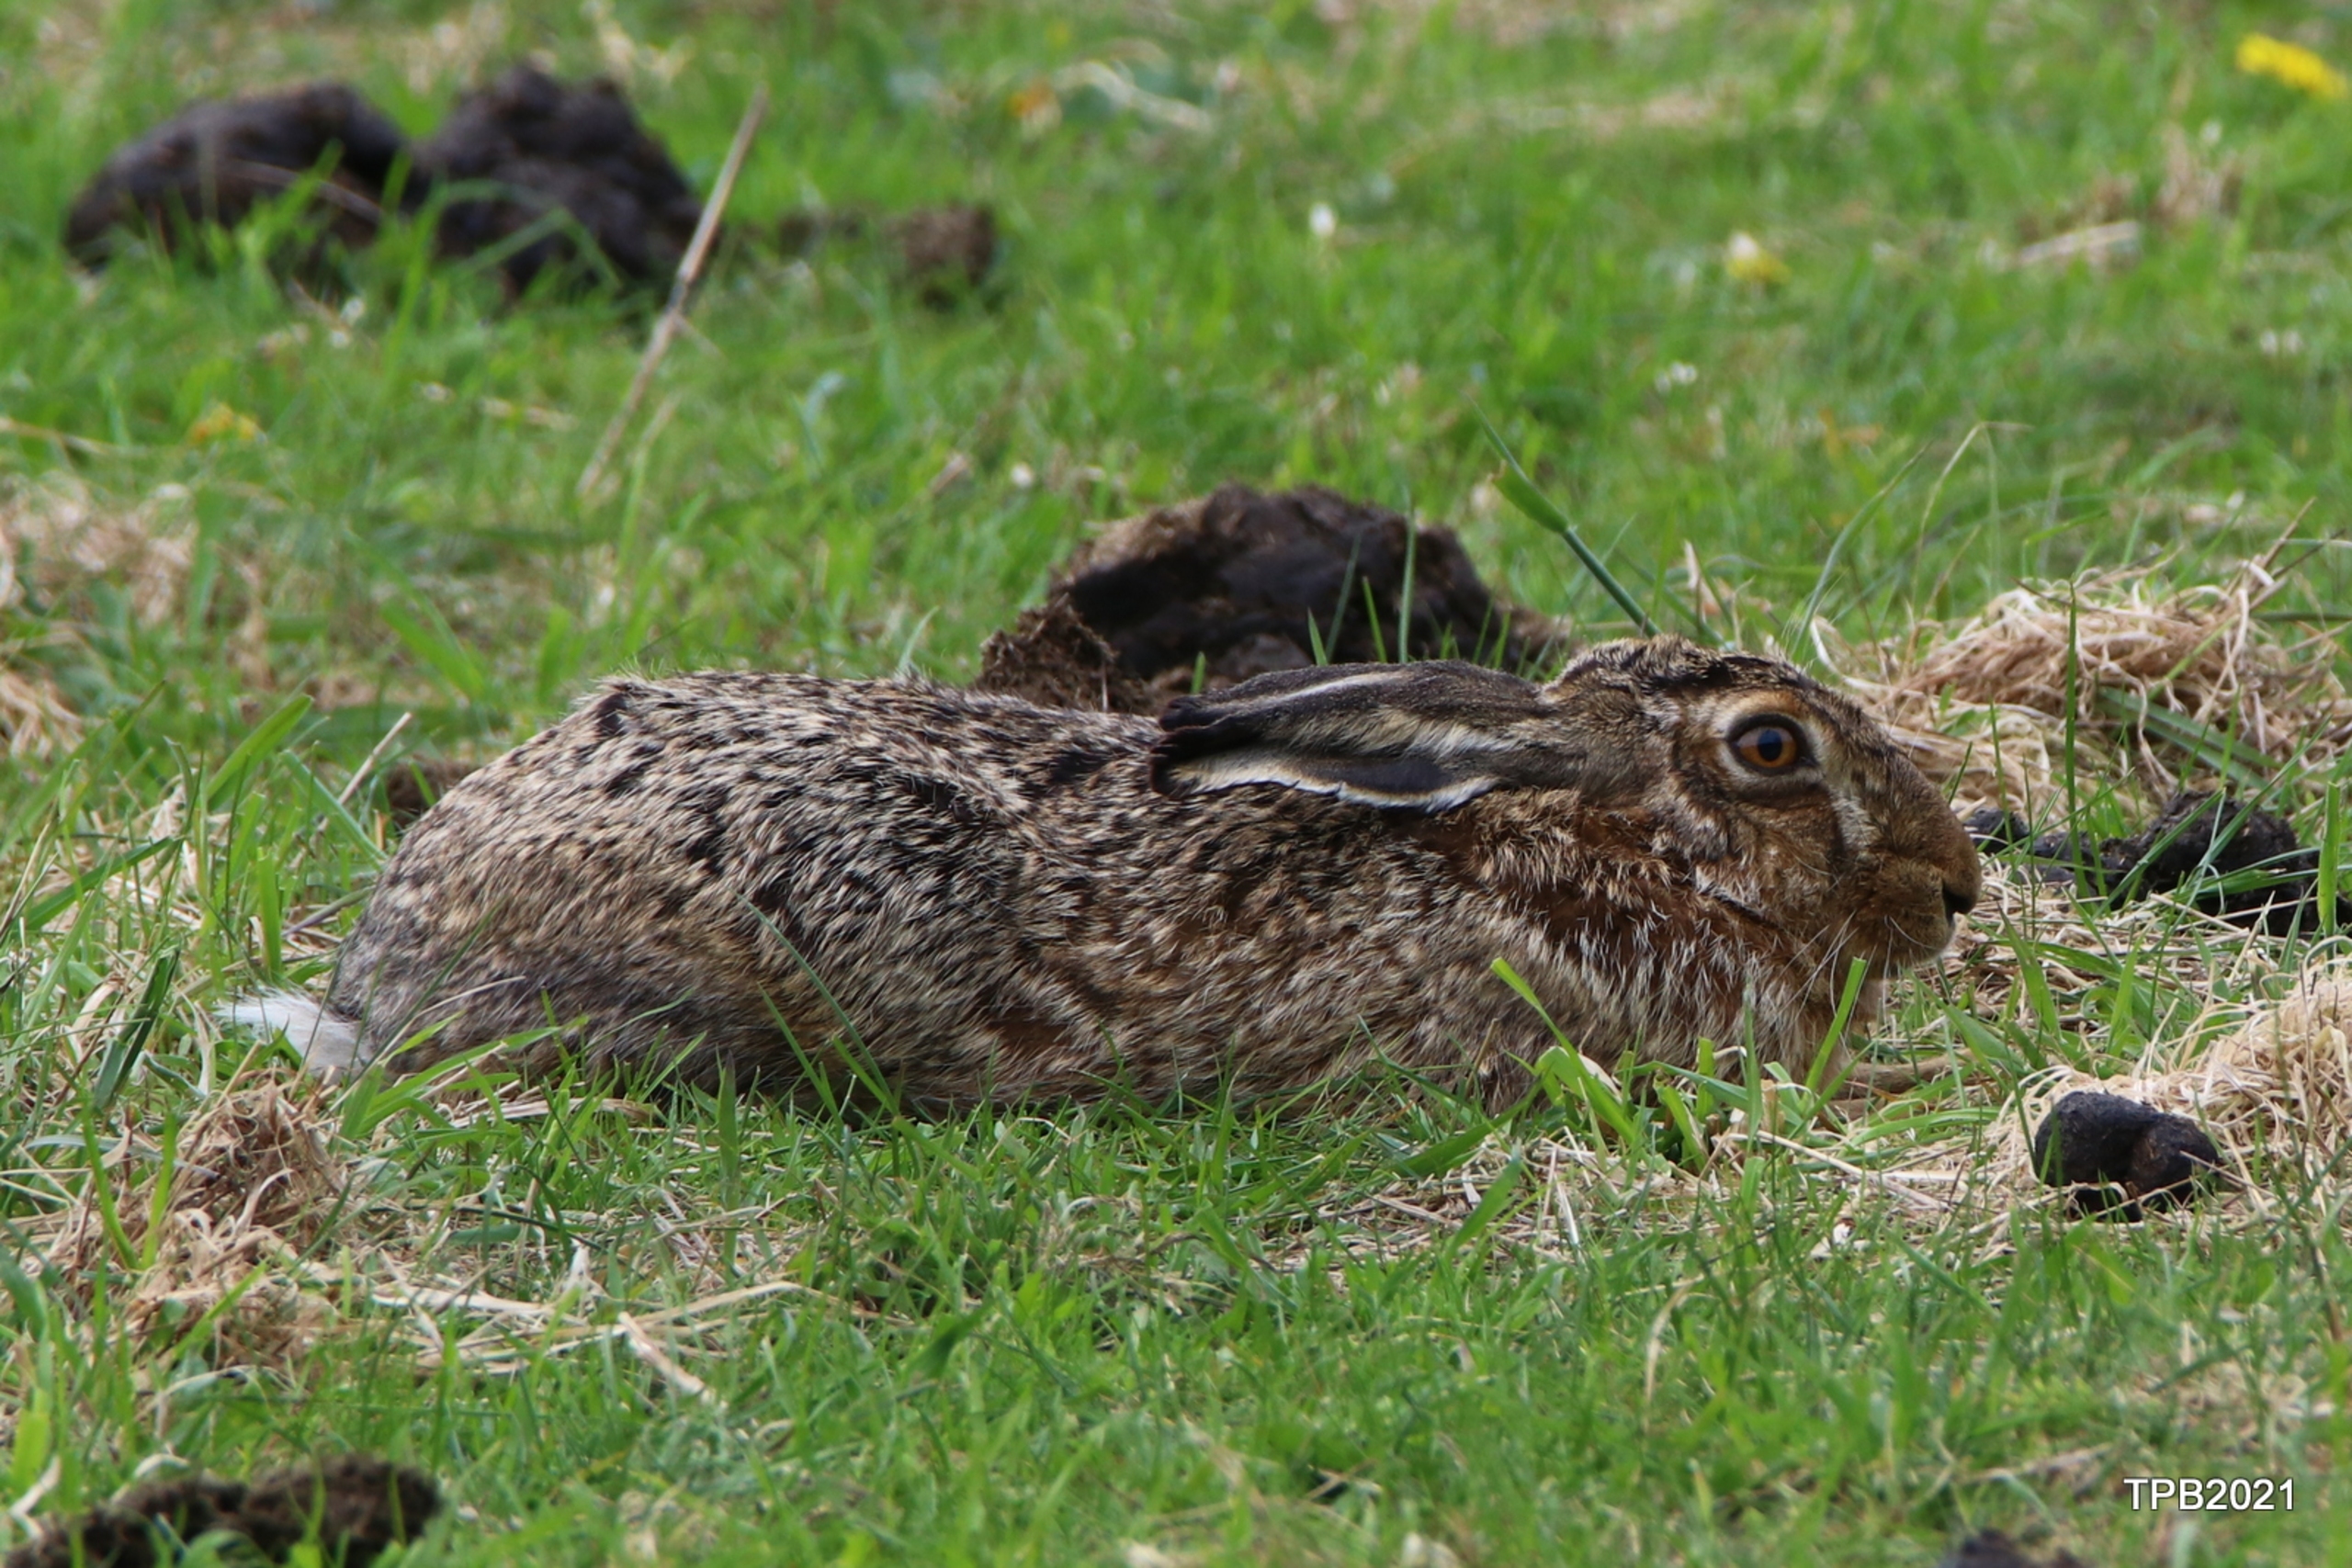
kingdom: Animalia
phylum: Chordata
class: Mammalia
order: Lagomorpha
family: Leporidae
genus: Lepus
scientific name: Lepus europaeus
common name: Hare
